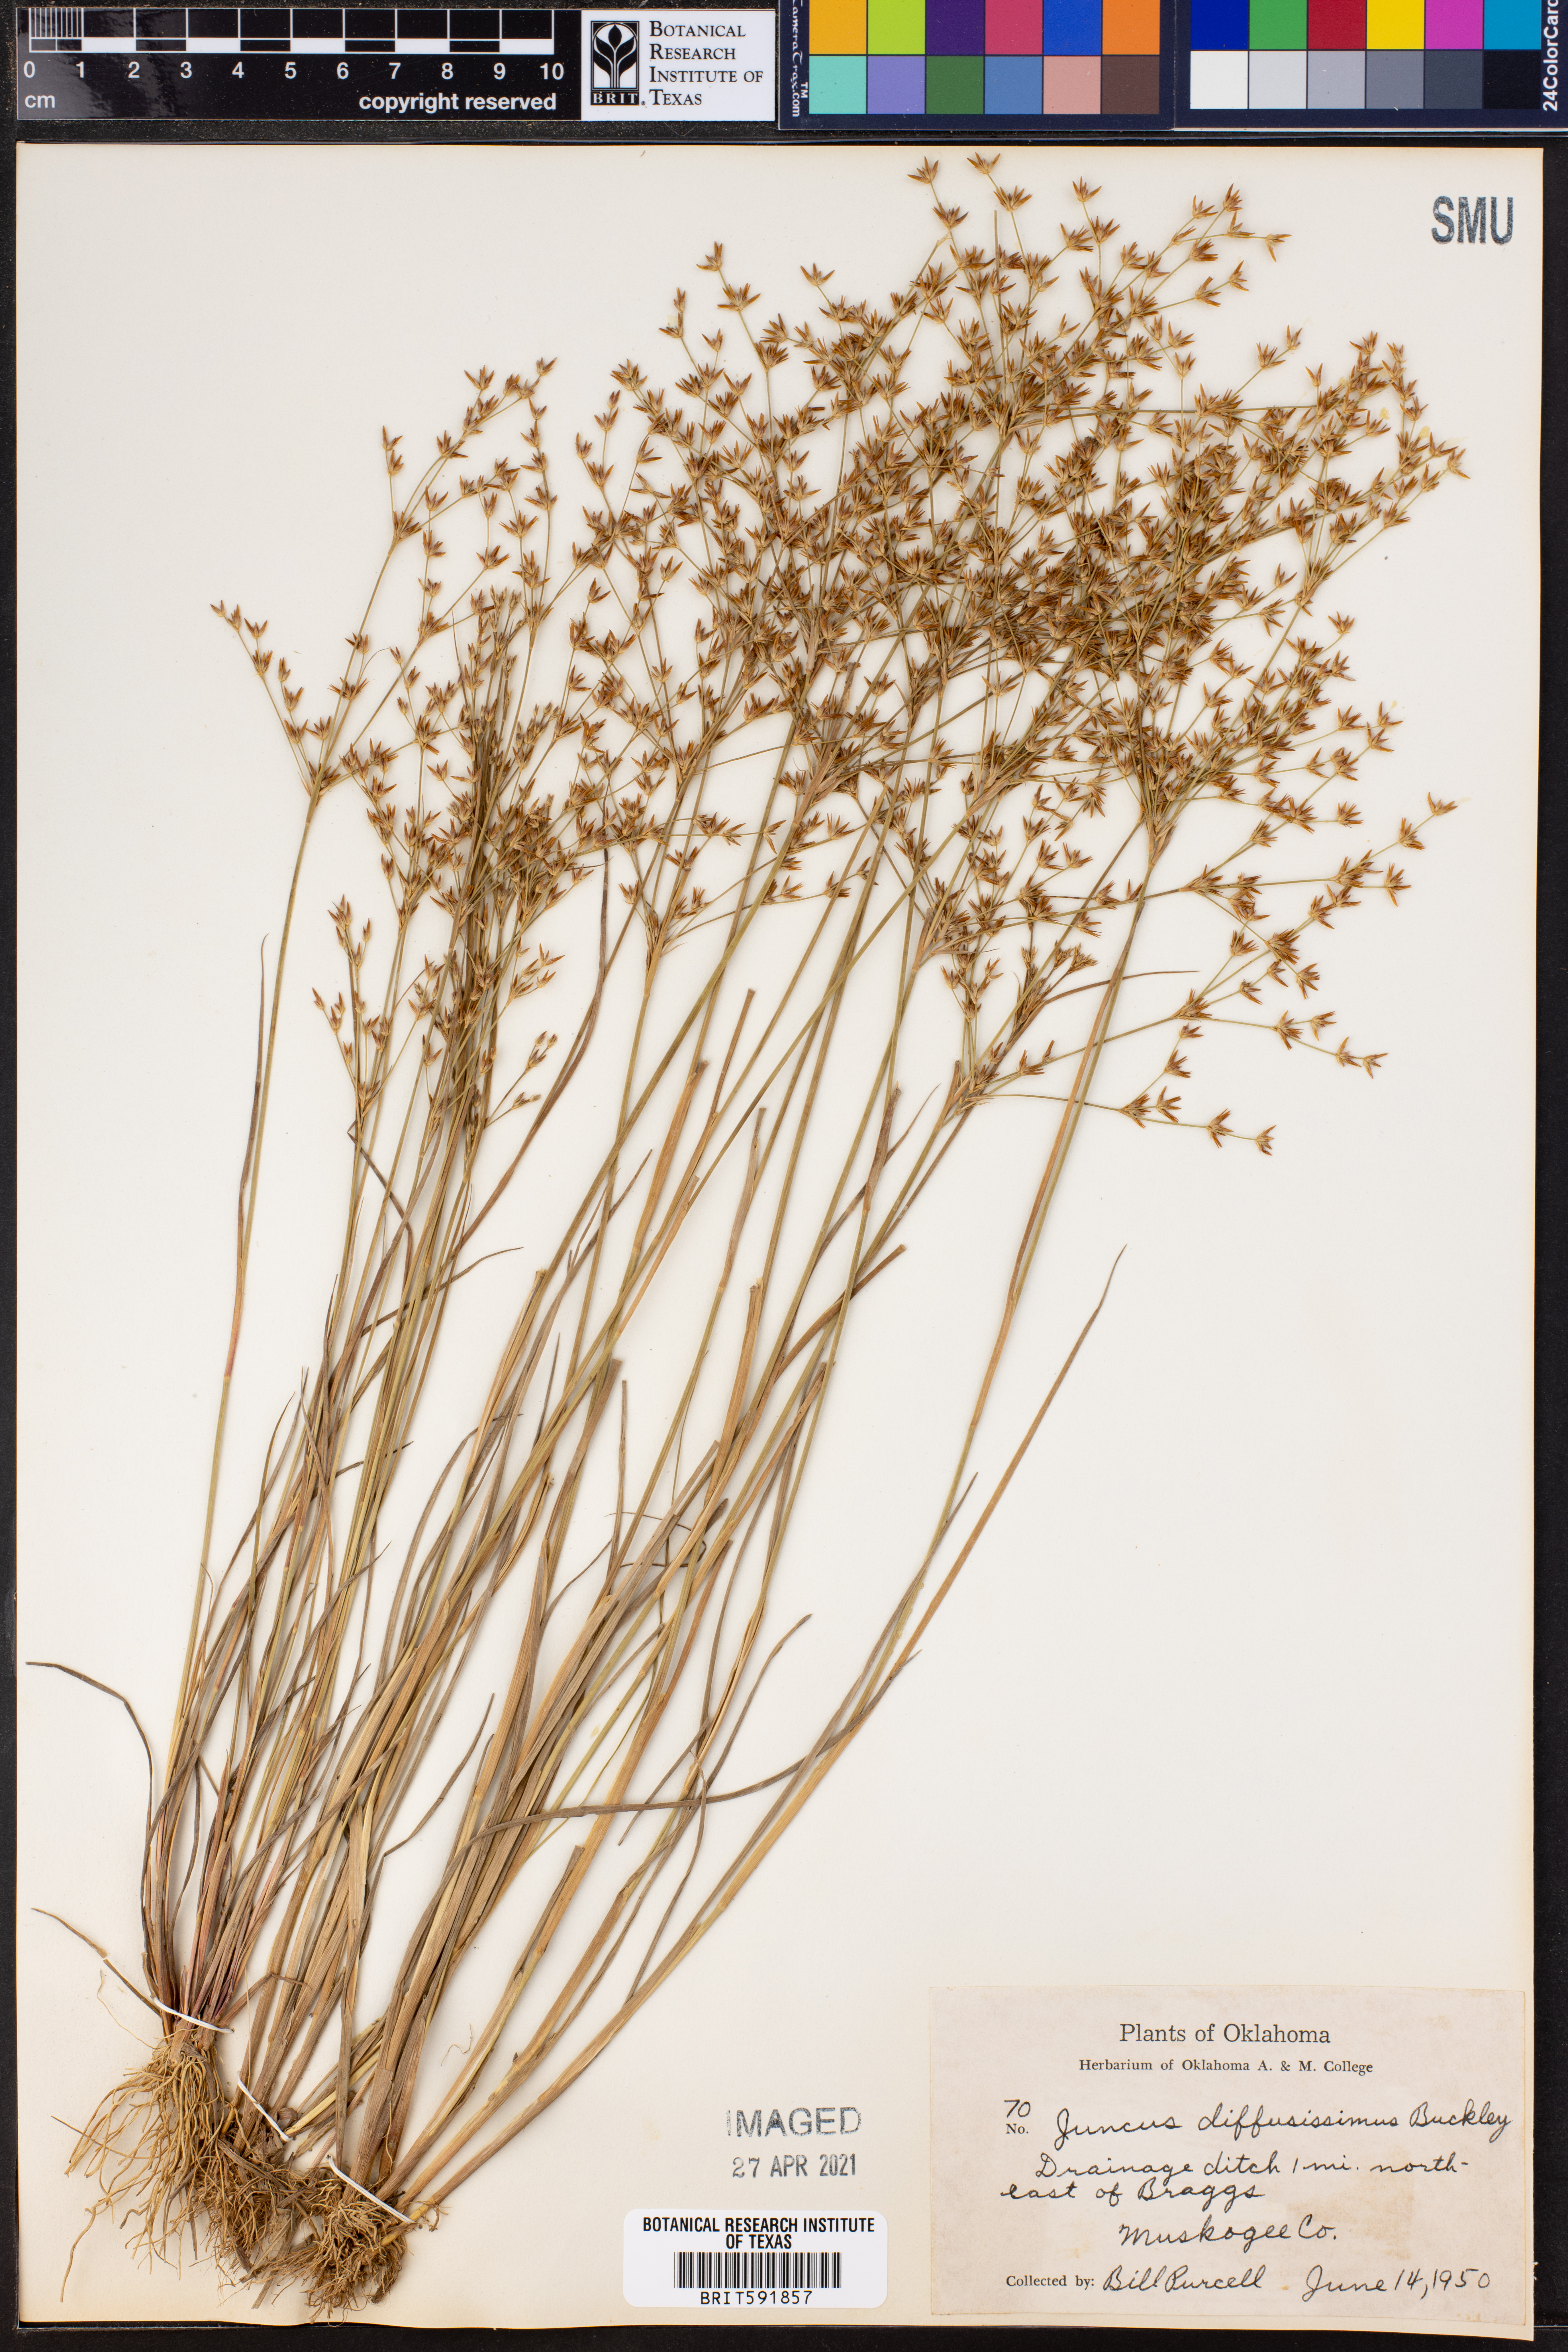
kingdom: Plantae
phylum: Tracheophyta
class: Liliopsida
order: Poales
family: Juncaceae
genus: Juncus
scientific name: Juncus diffusissimus
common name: Slimpod rush
